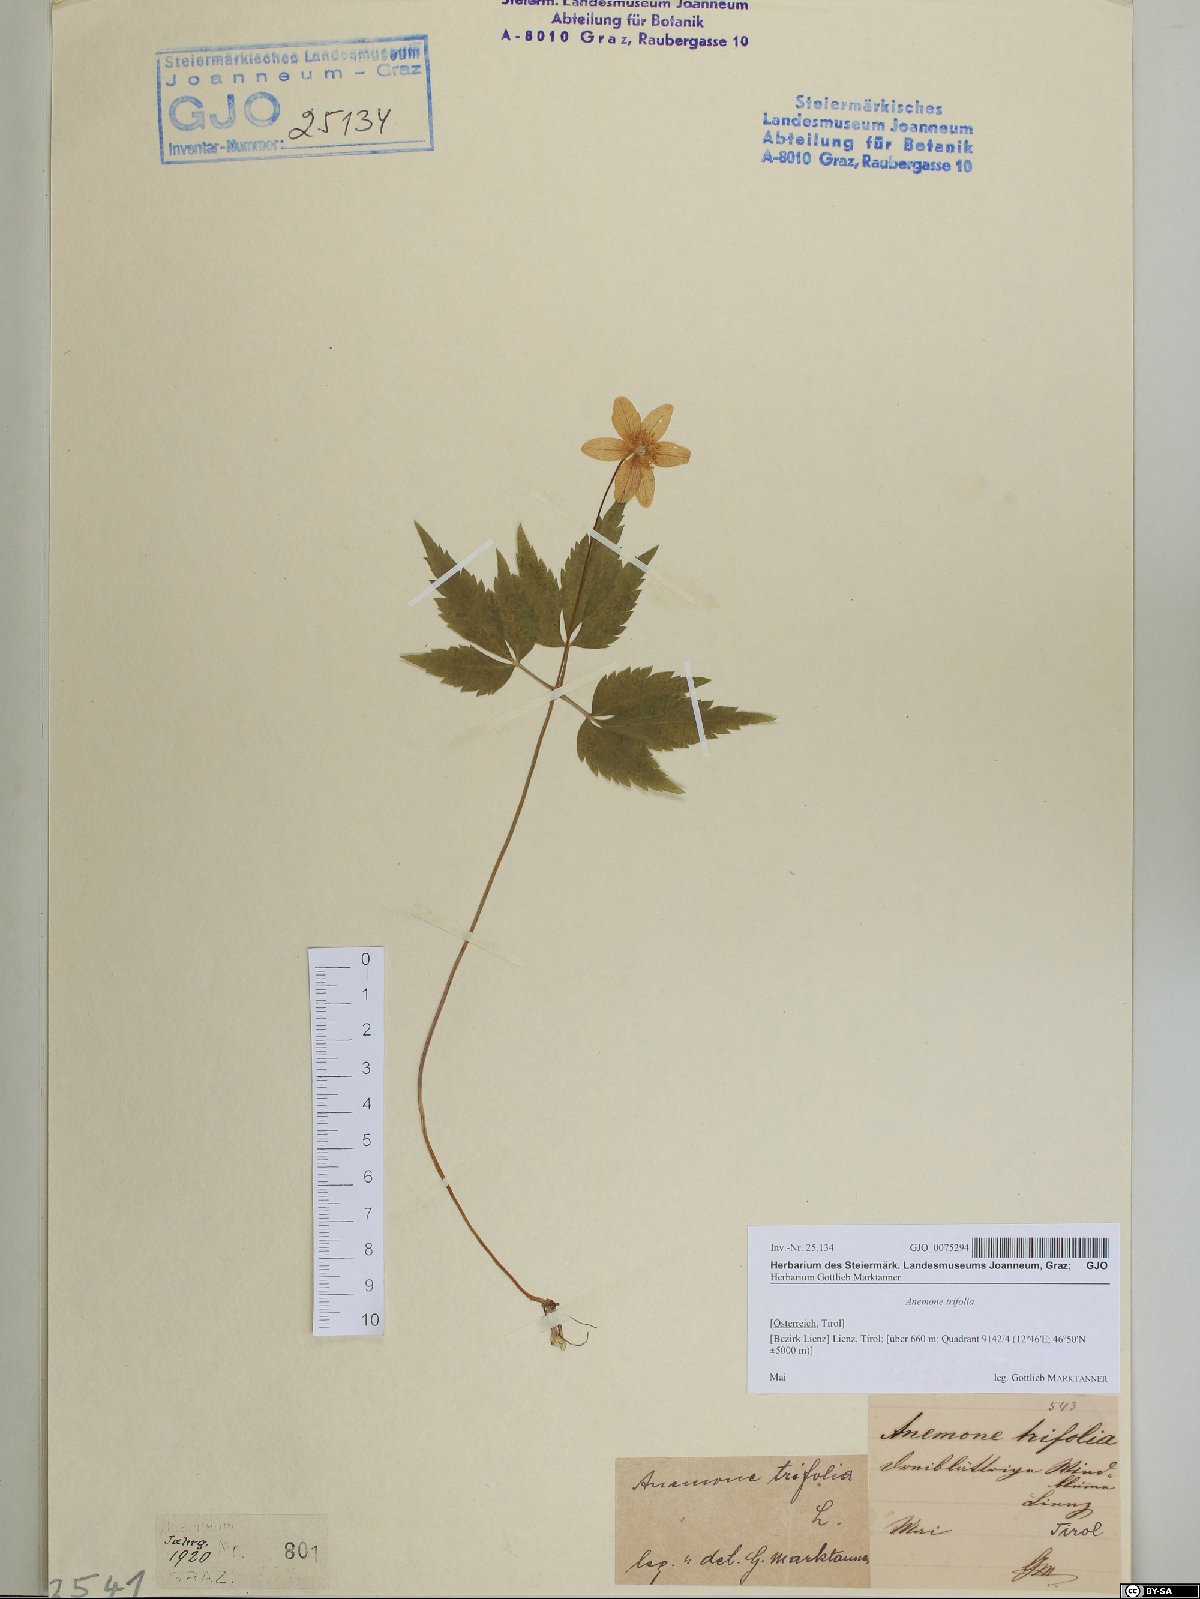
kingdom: Plantae
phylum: Tracheophyta
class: Magnoliopsida
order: Ranunculales
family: Ranunculaceae
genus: Anemone
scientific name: Anemone trifolia
